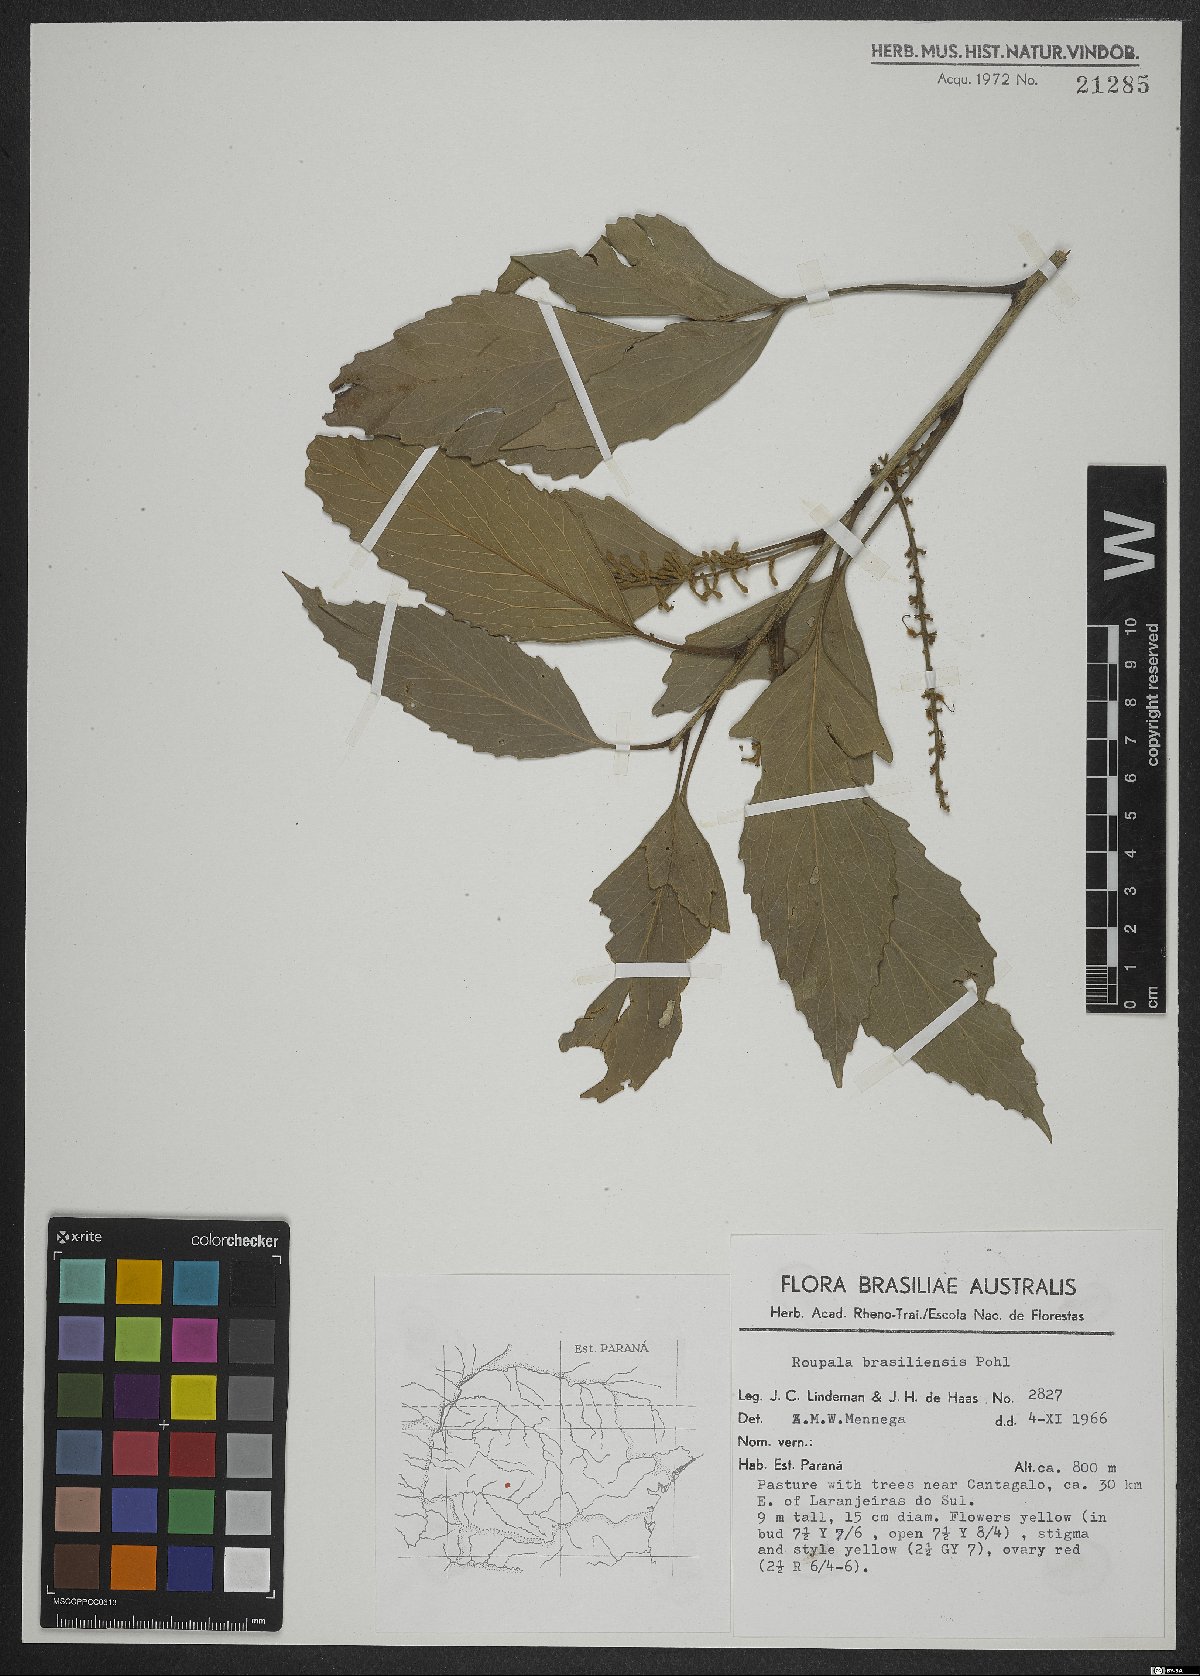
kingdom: Plantae
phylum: Tracheophyta
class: Magnoliopsida
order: Proteales
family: Proteaceae
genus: Roupala
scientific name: Roupala montana
